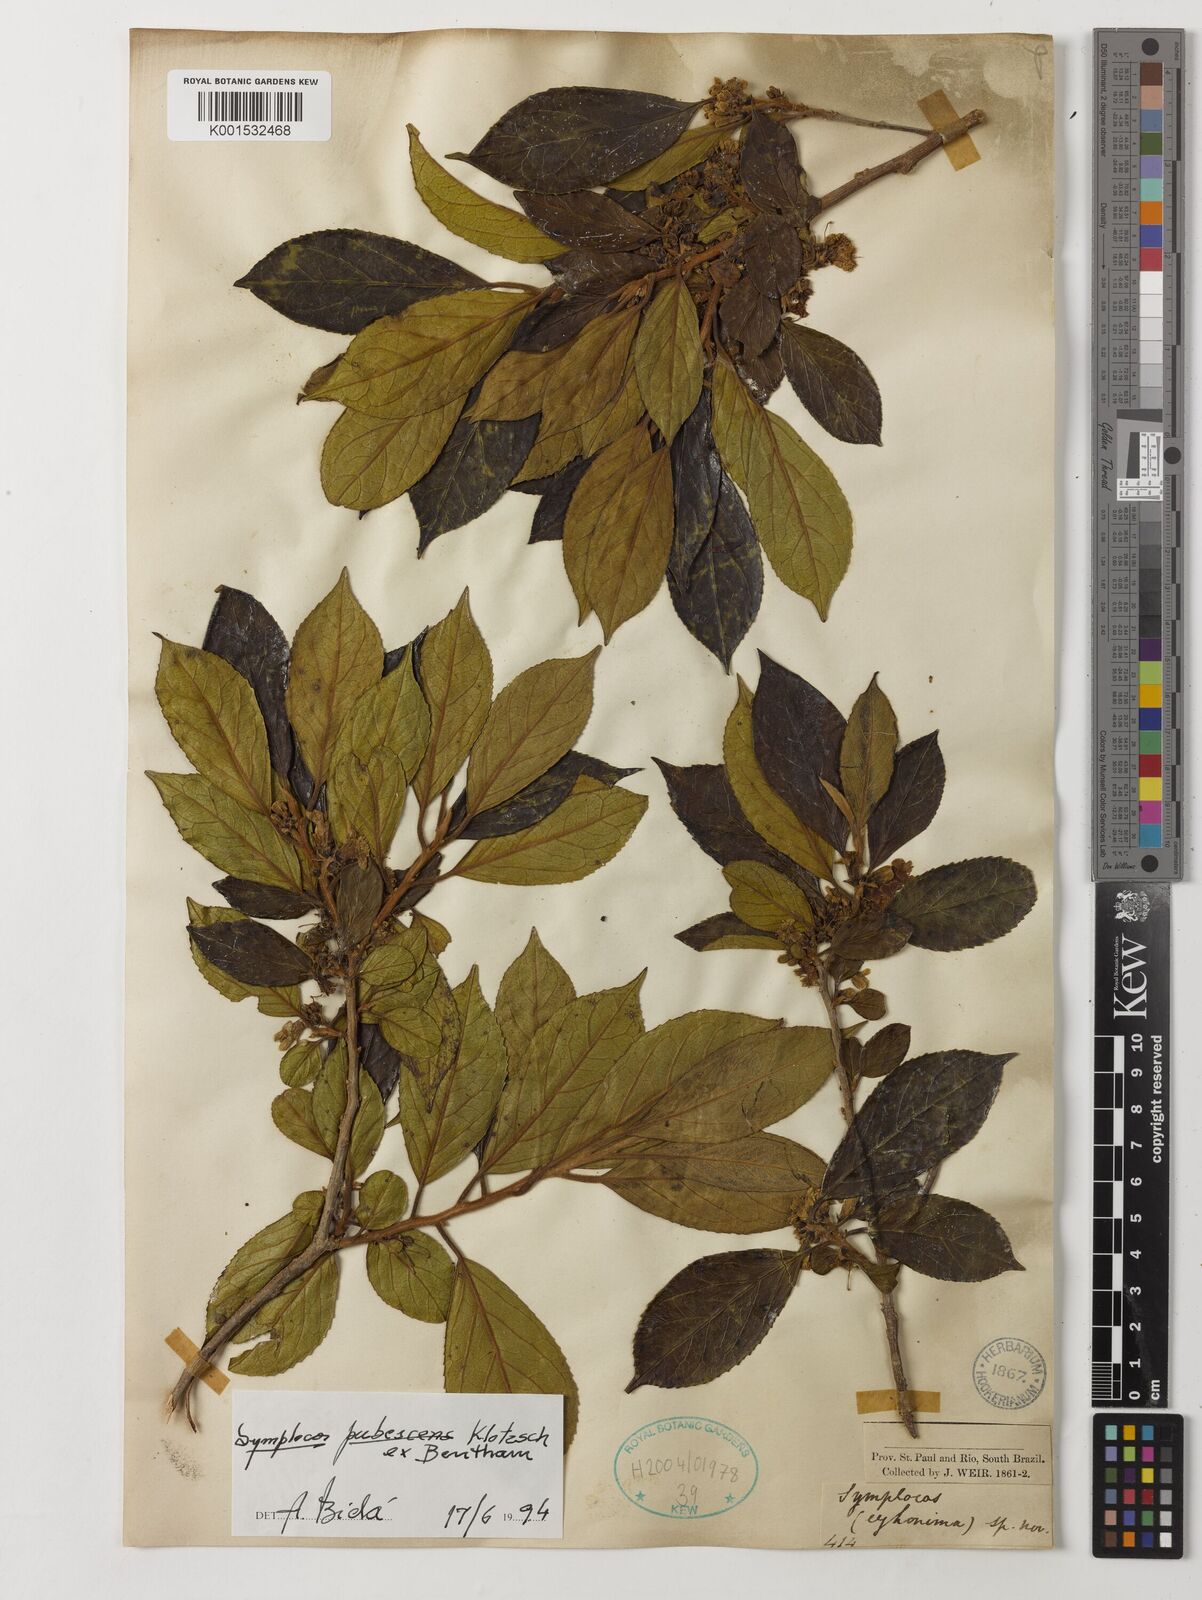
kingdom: Plantae
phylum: Tracheophyta
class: Magnoliopsida
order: Ericales
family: Symplocaceae
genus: Symplocos
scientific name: Symplocos pubescens
